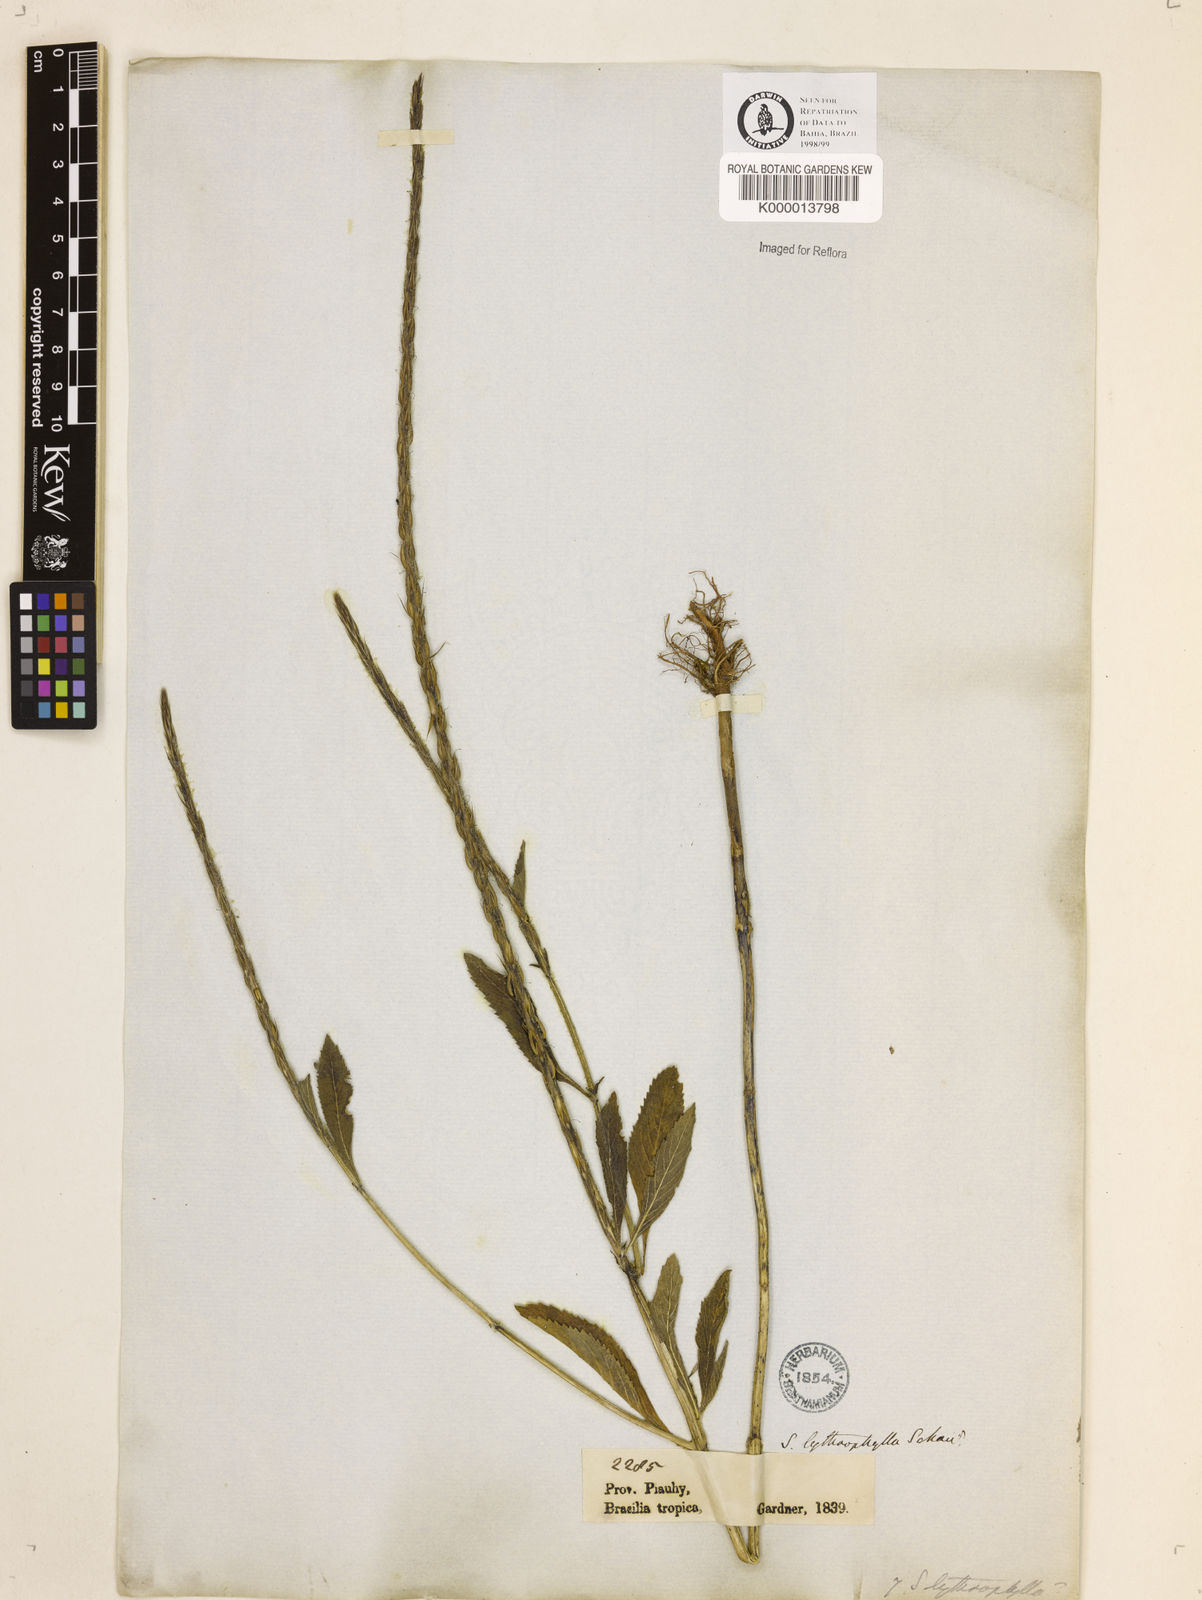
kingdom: Plantae
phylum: Tracheophyta
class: Magnoliopsida
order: Lamiales
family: Verbenaceae
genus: Stachytarpheta
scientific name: Stachytarpheta lythrophylla
